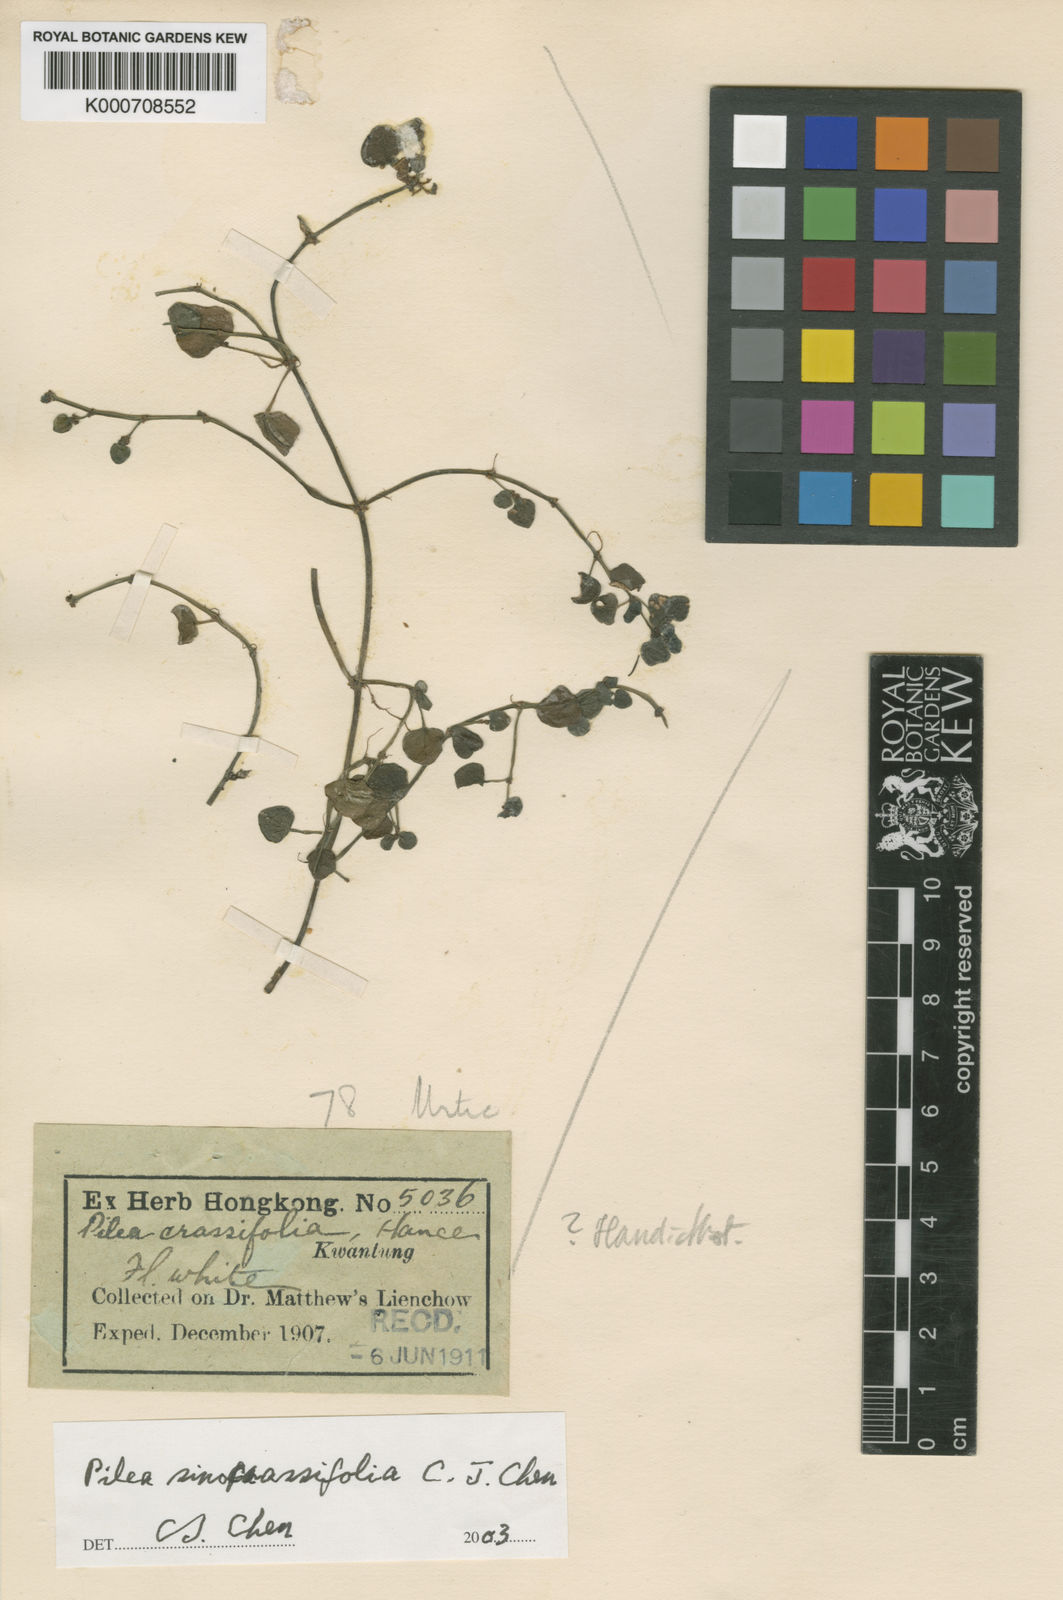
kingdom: Plantae
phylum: Tracheophyta
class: Magnoliopsida
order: Rosales
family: Urticaceae
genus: Pilea
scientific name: Pilea sinocrassifolia
